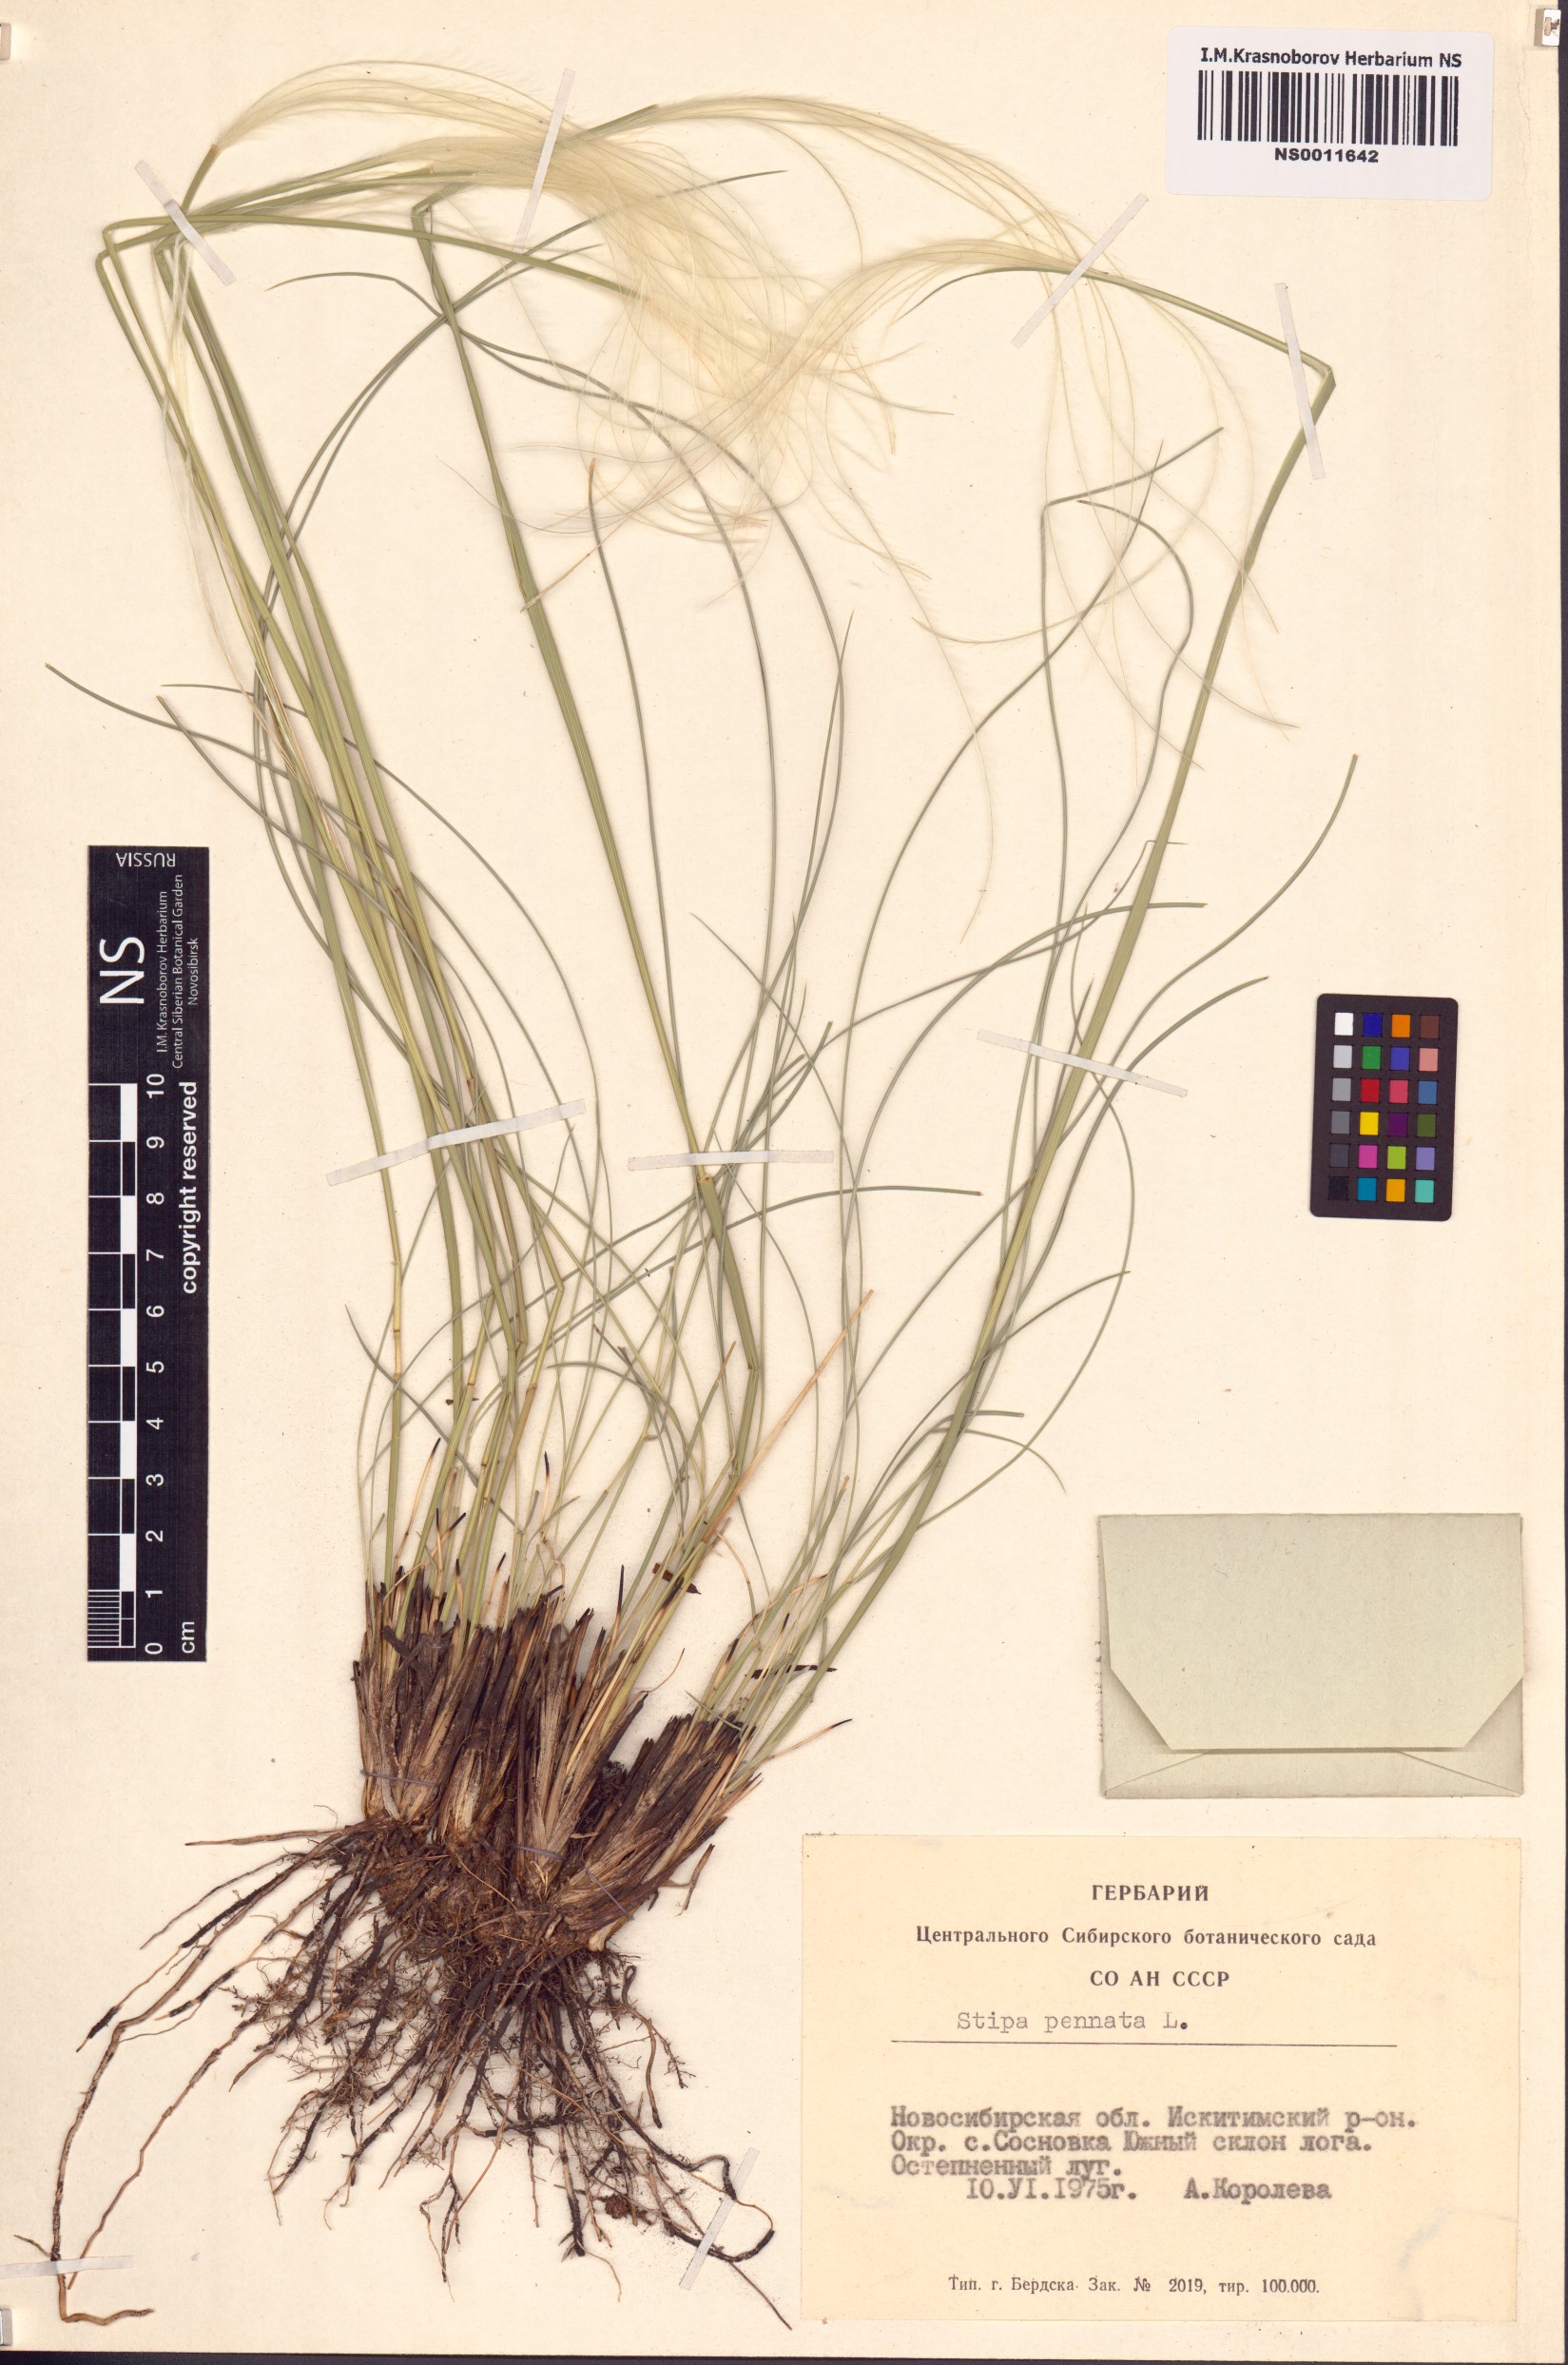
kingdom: Plantae
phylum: Tracheophyta
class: Liliopsida
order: Poales
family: Poaceae
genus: Stipa
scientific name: Stipa pennata
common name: European feather grass
